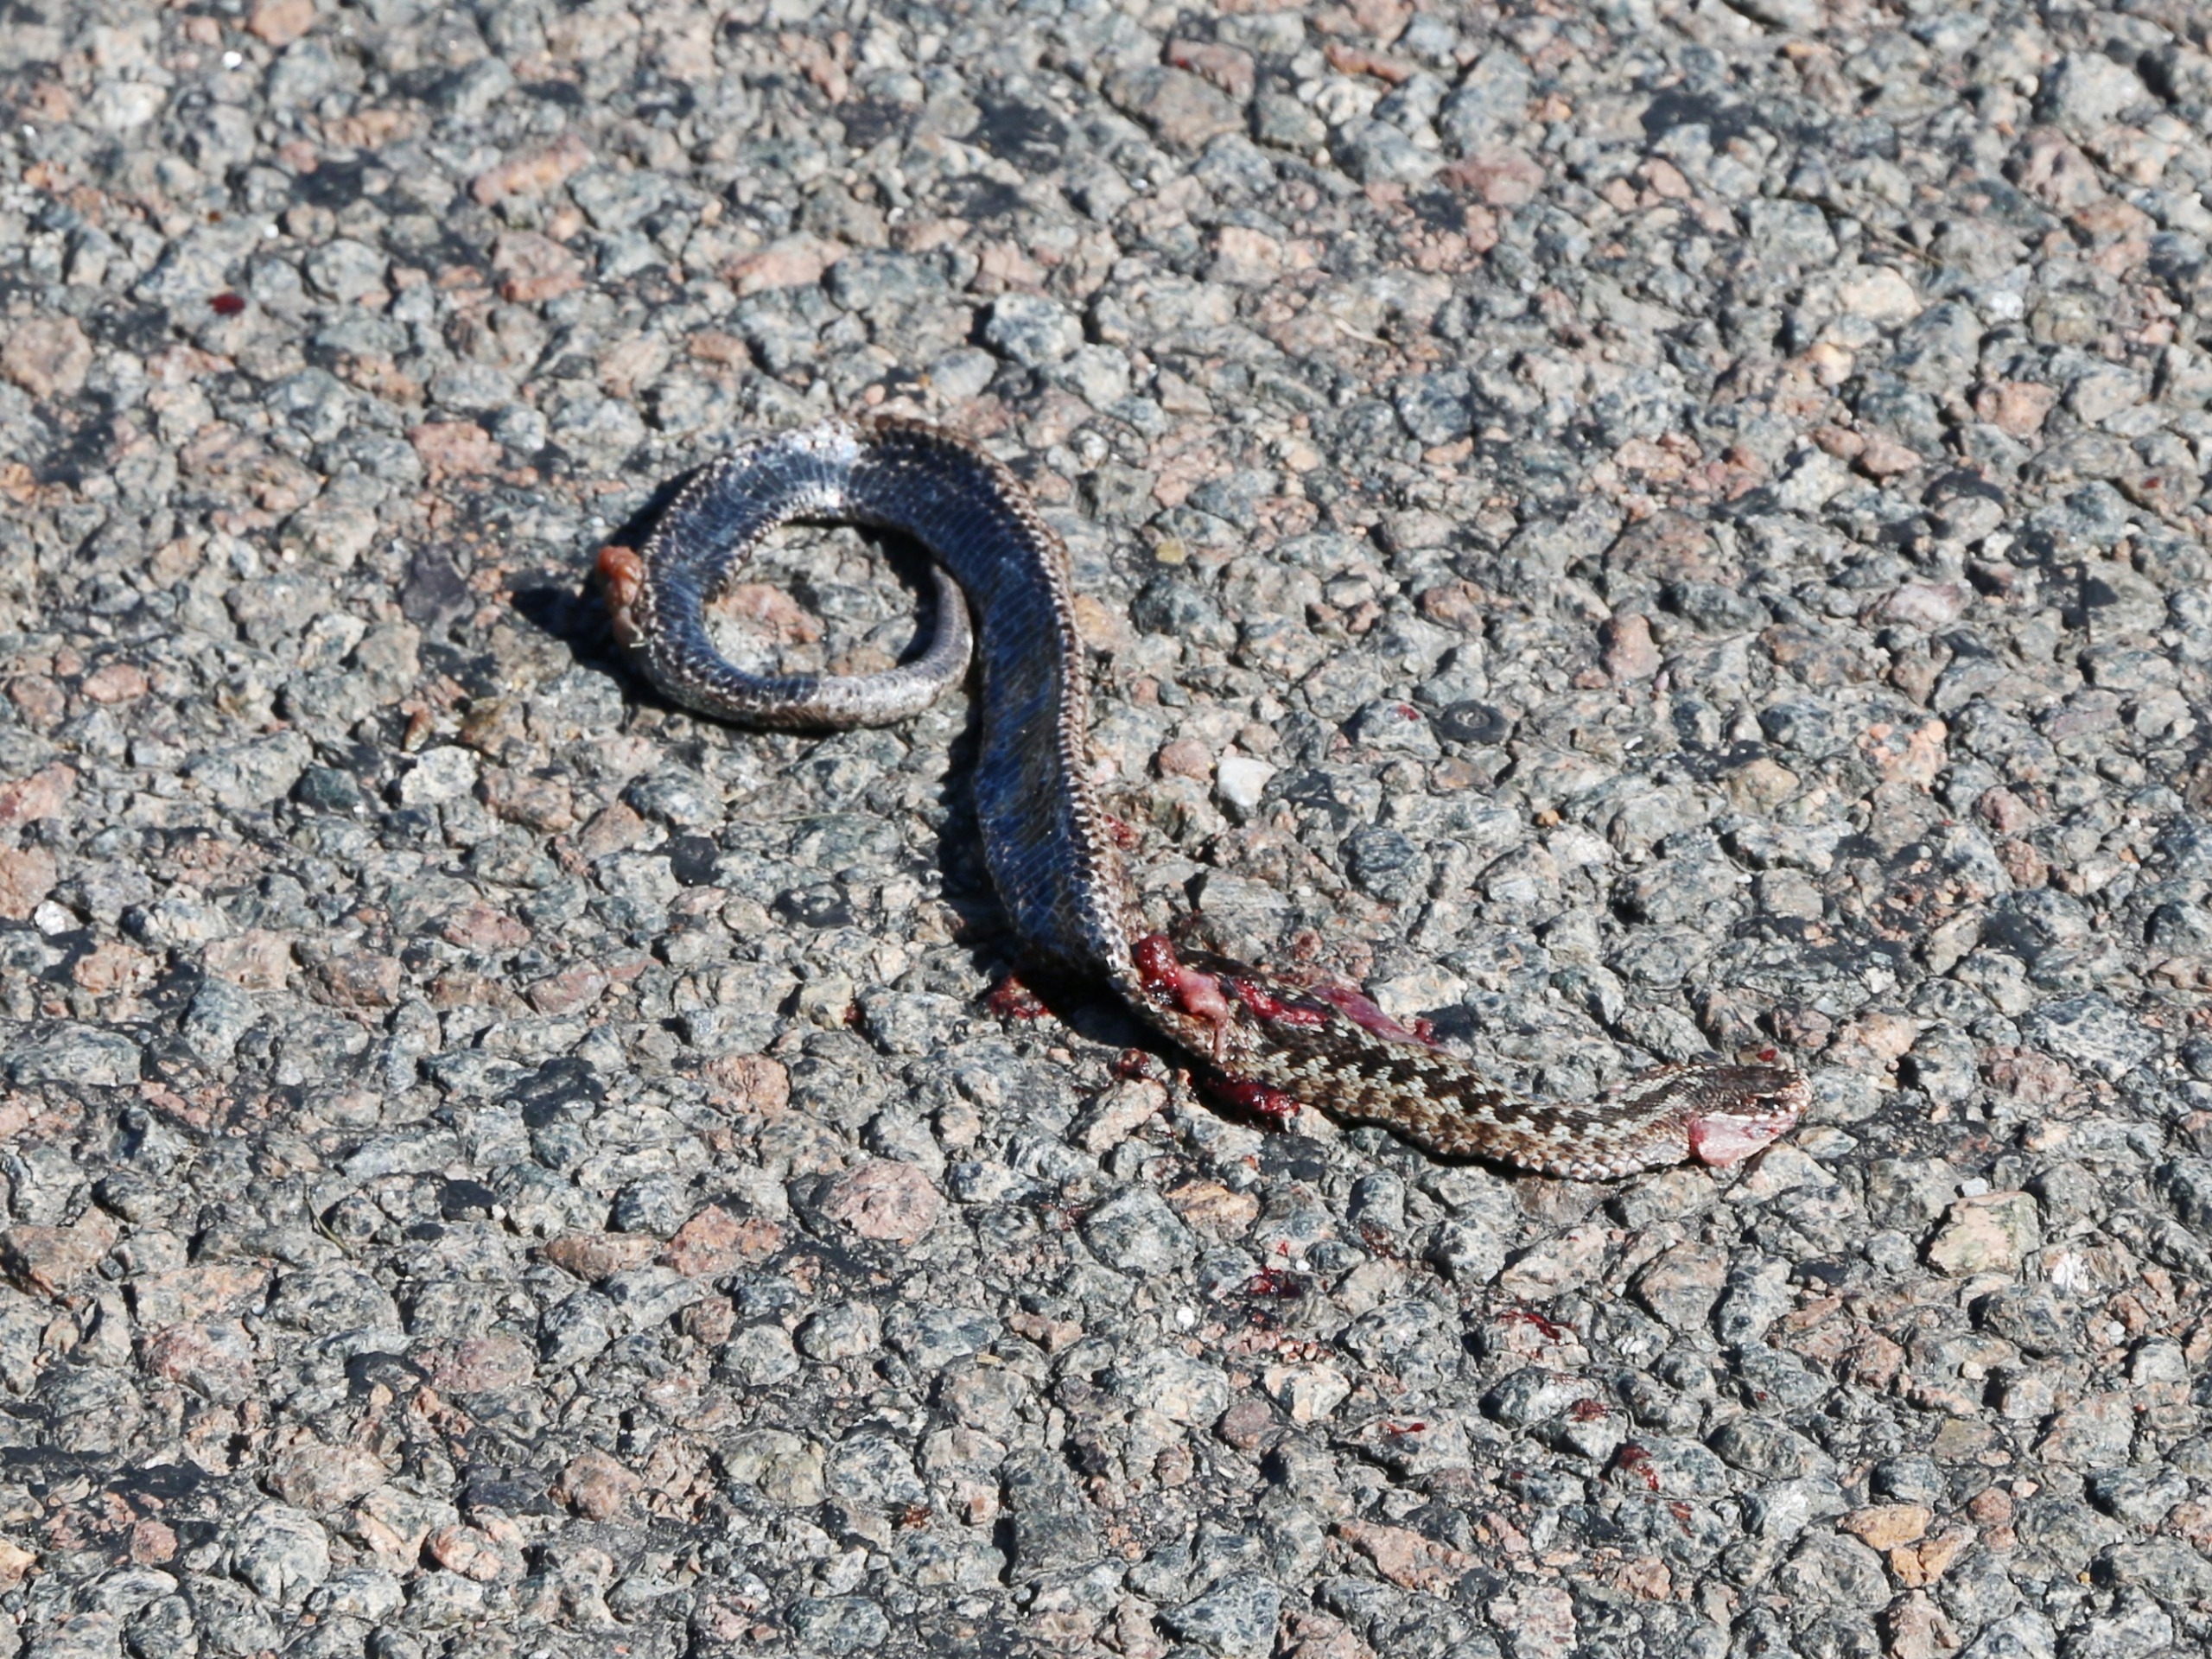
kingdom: Animalia
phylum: Chordata
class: Squamata
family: Viperidae
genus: Vipera
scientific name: Vipera berus
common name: Hugorm
